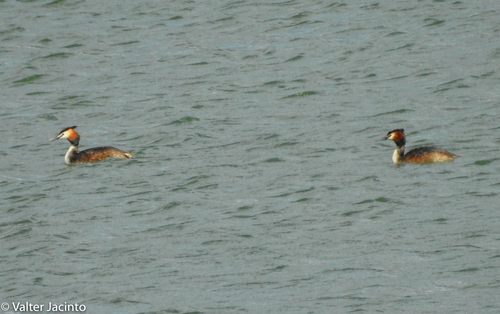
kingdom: Animalia
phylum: Chordata
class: Aves
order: Podicipediformes
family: Podicipedidae
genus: Podiceps
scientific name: Podiceps cristatus
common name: Great crested grebe
